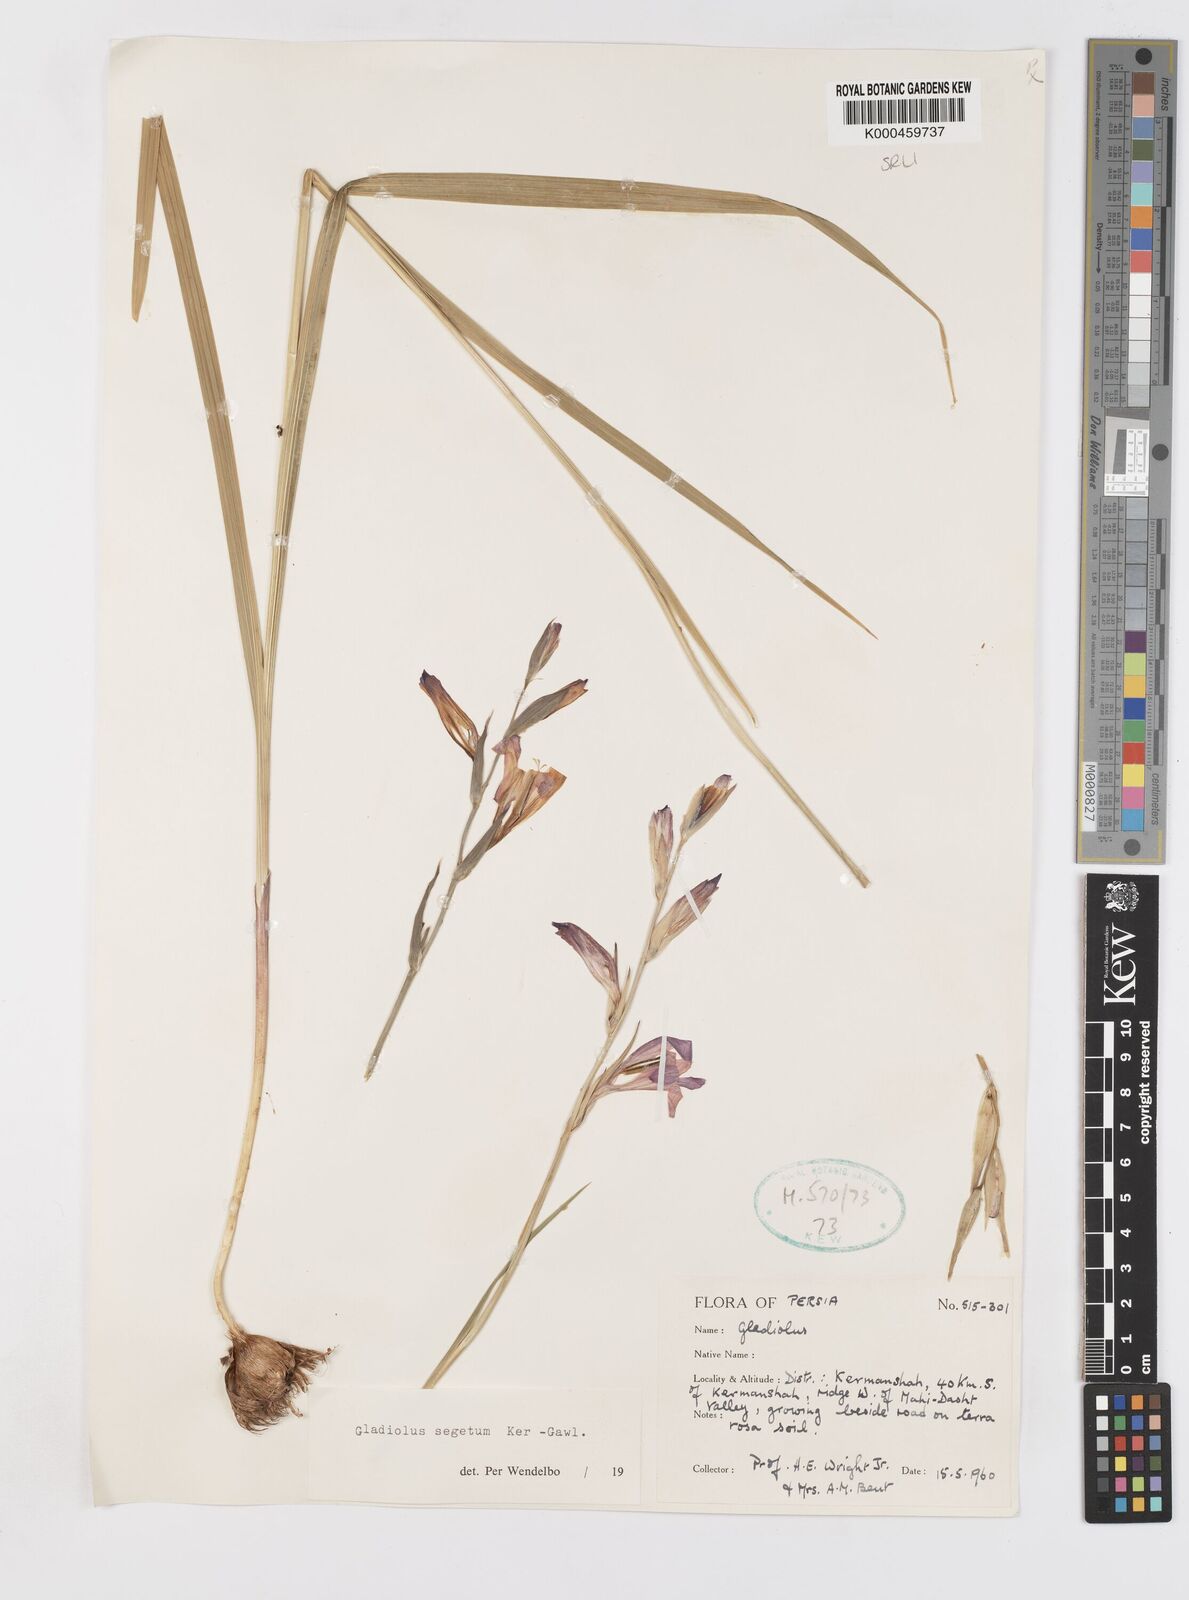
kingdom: Plantae
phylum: Tracheophyta
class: Liliopsida
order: Asparagales
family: Iridaceae
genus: Gladiolus
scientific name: Gladiolus italicus
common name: Field gladiolus
